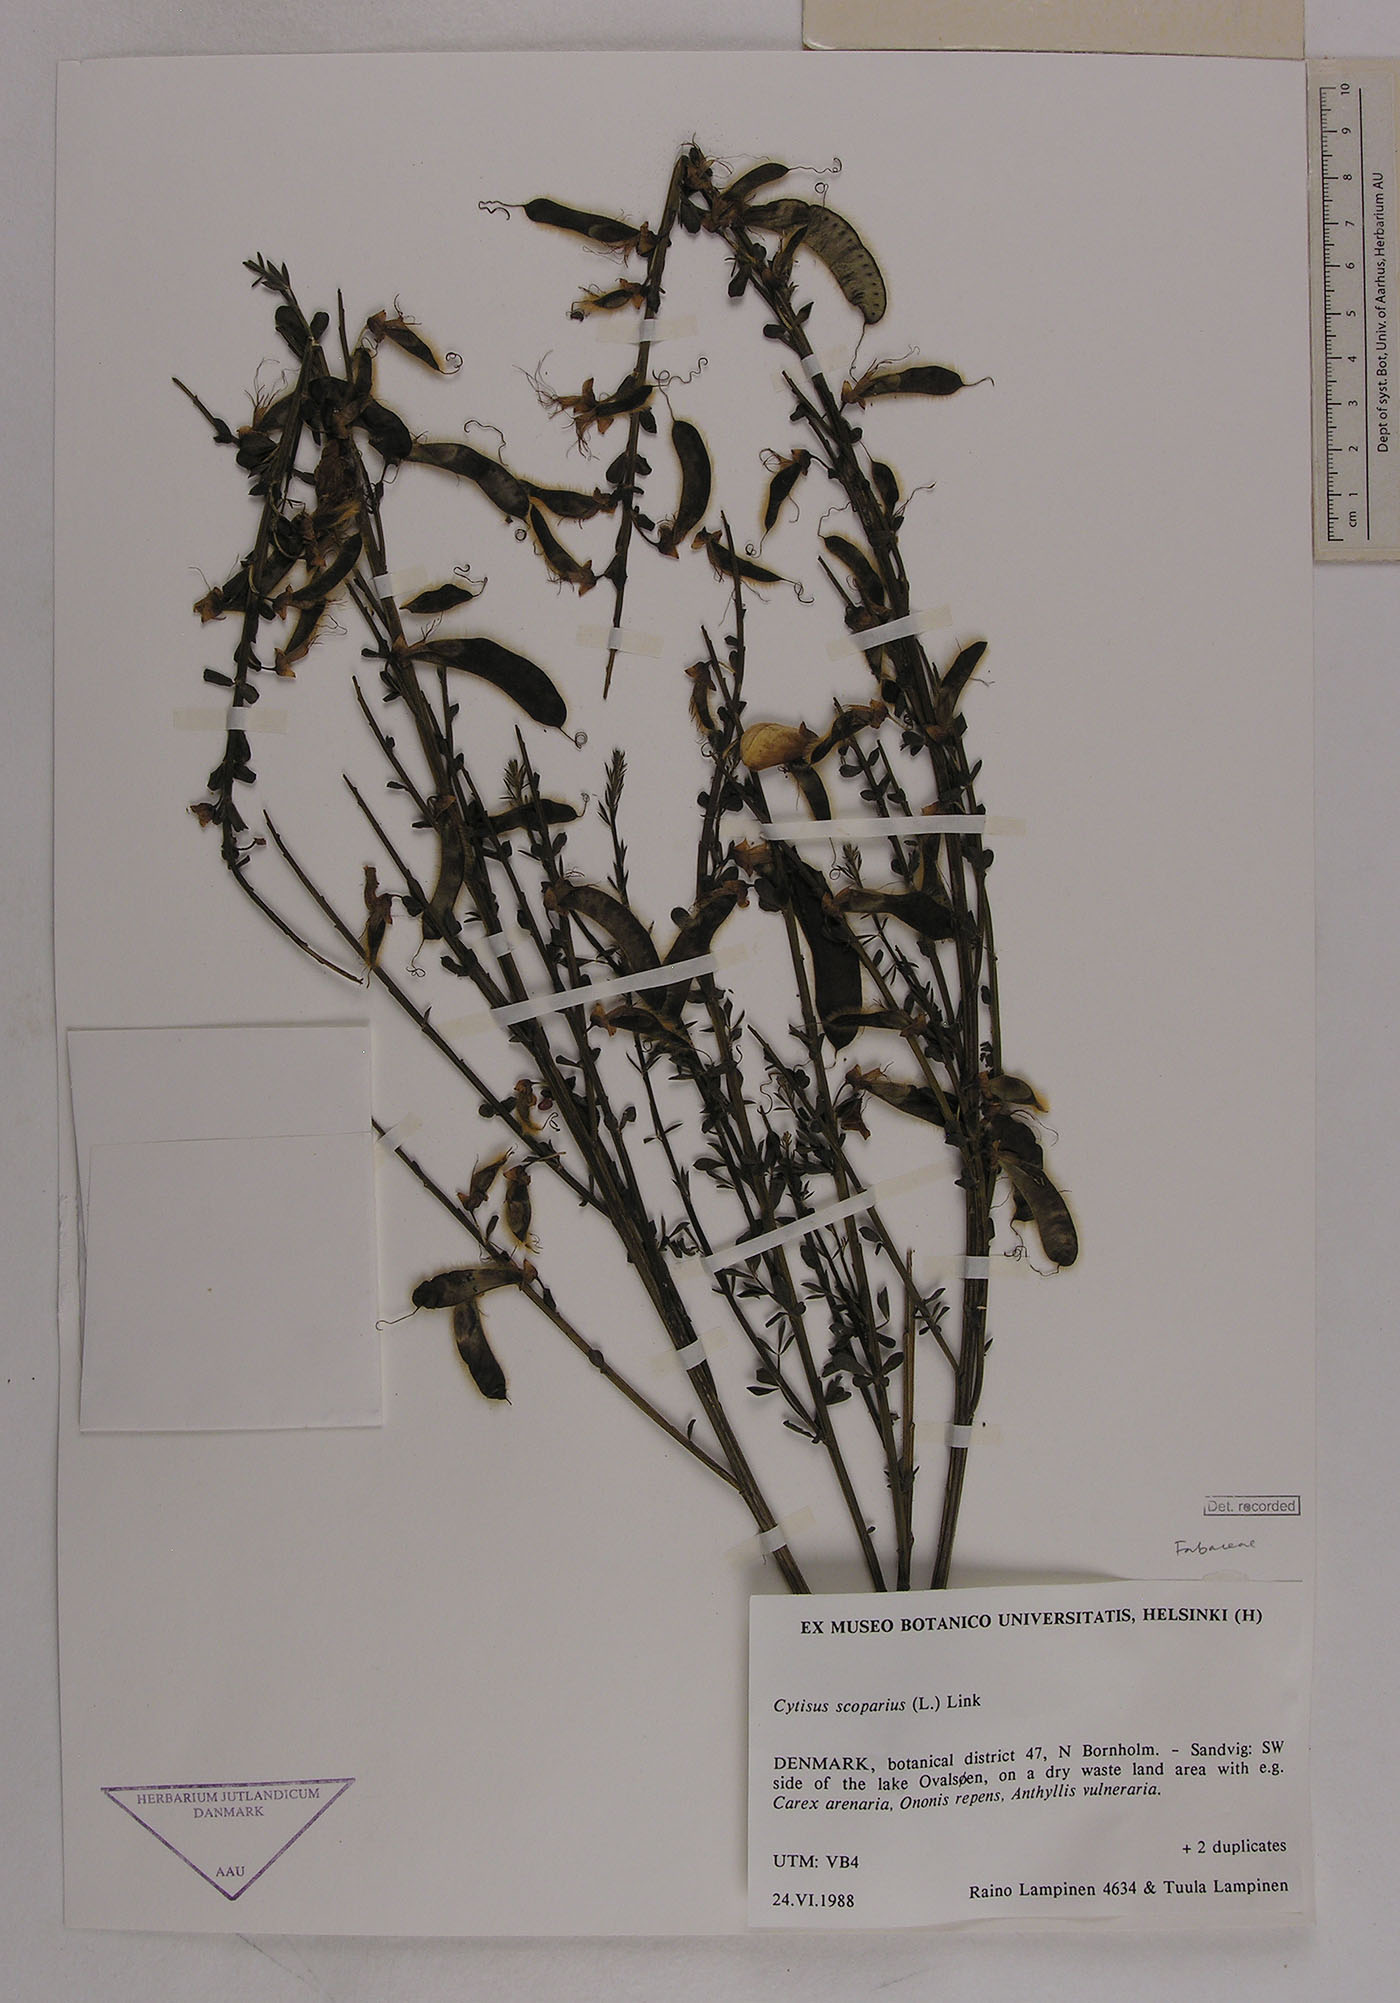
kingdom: Plantae
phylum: Tracheophyta
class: Magnoliopsida
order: Fabales
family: Fabaceae
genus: Cytisus
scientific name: Cytisus scoparius
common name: Scotch broom
